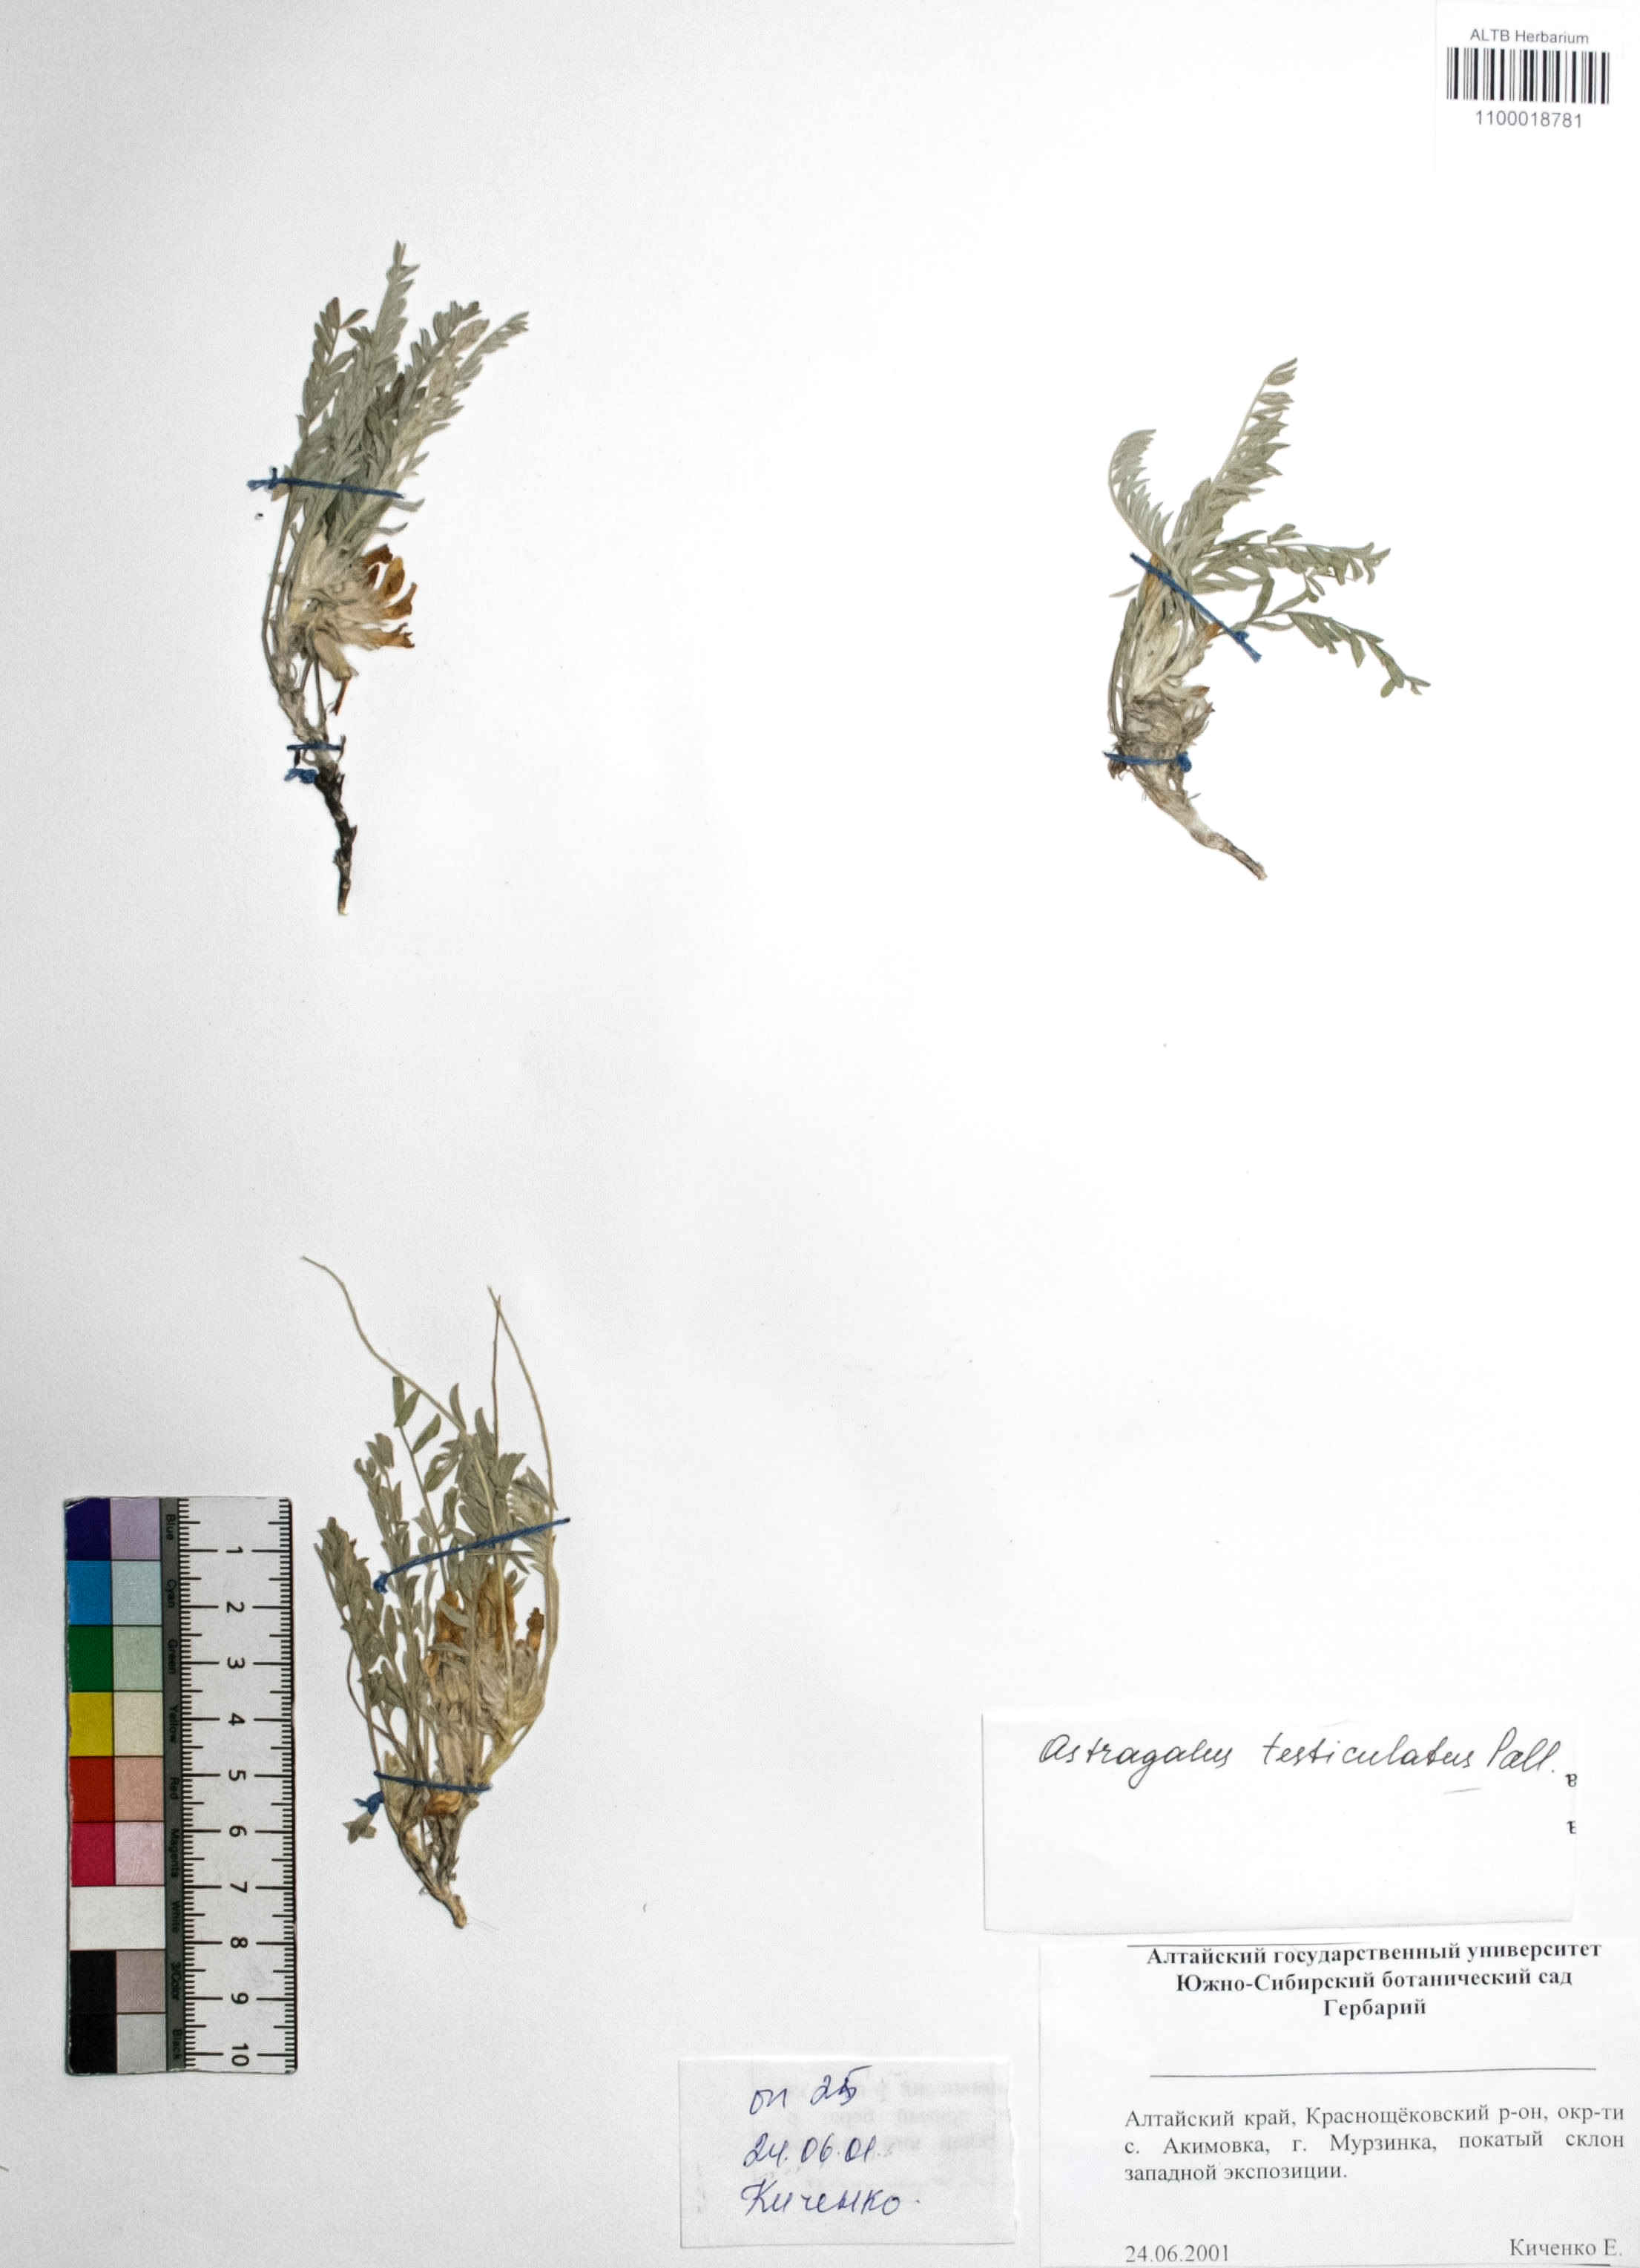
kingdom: Plantae
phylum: Tracheophyta
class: Magnoliopsida
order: Fabales
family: Fabaceae
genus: Astragalus
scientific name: Astragalus testiculatus
